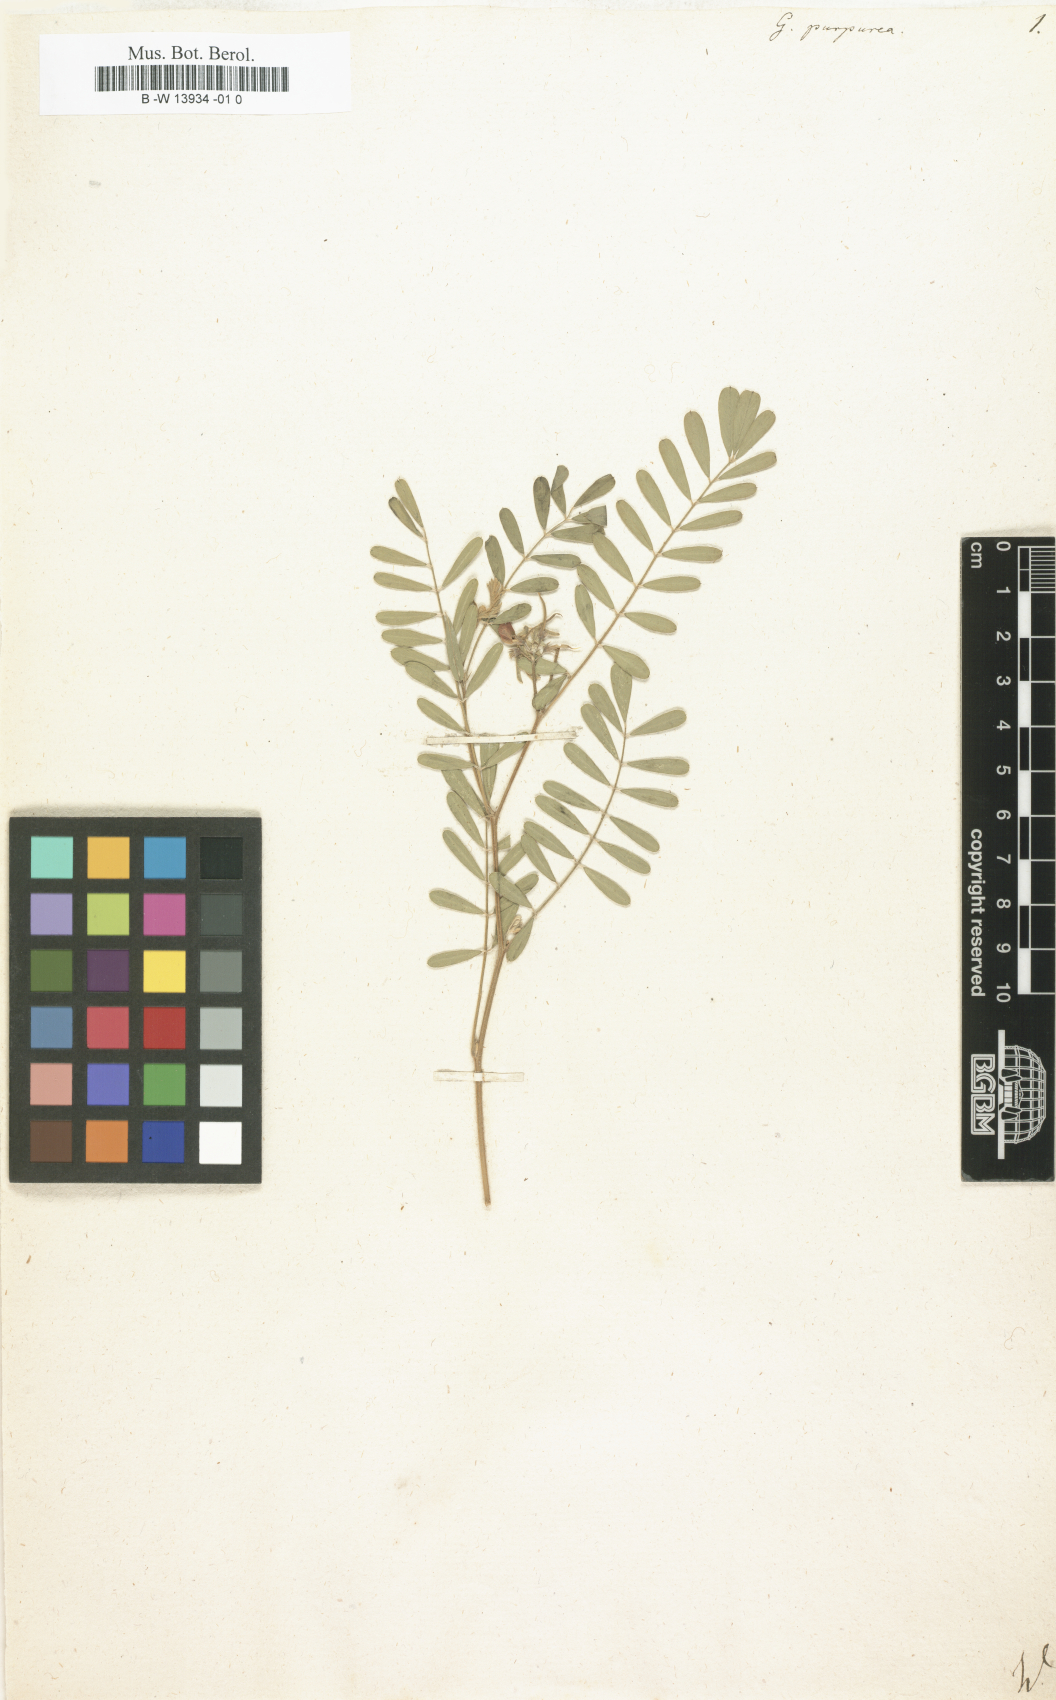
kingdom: Plantae
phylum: Tracheophyta
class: Magnoliopsida
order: Fabales
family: Fabaceae
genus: Tephrosia
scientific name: Tephrosia purpurea
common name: Fishpoison
